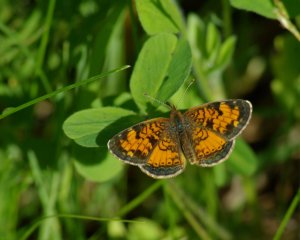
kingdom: Animalia
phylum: Arthropoda
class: Insecta
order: Lepidoptera
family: Nymphalidae
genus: Phyciodes
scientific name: Phyciodes tharos
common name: Northern Crescent
